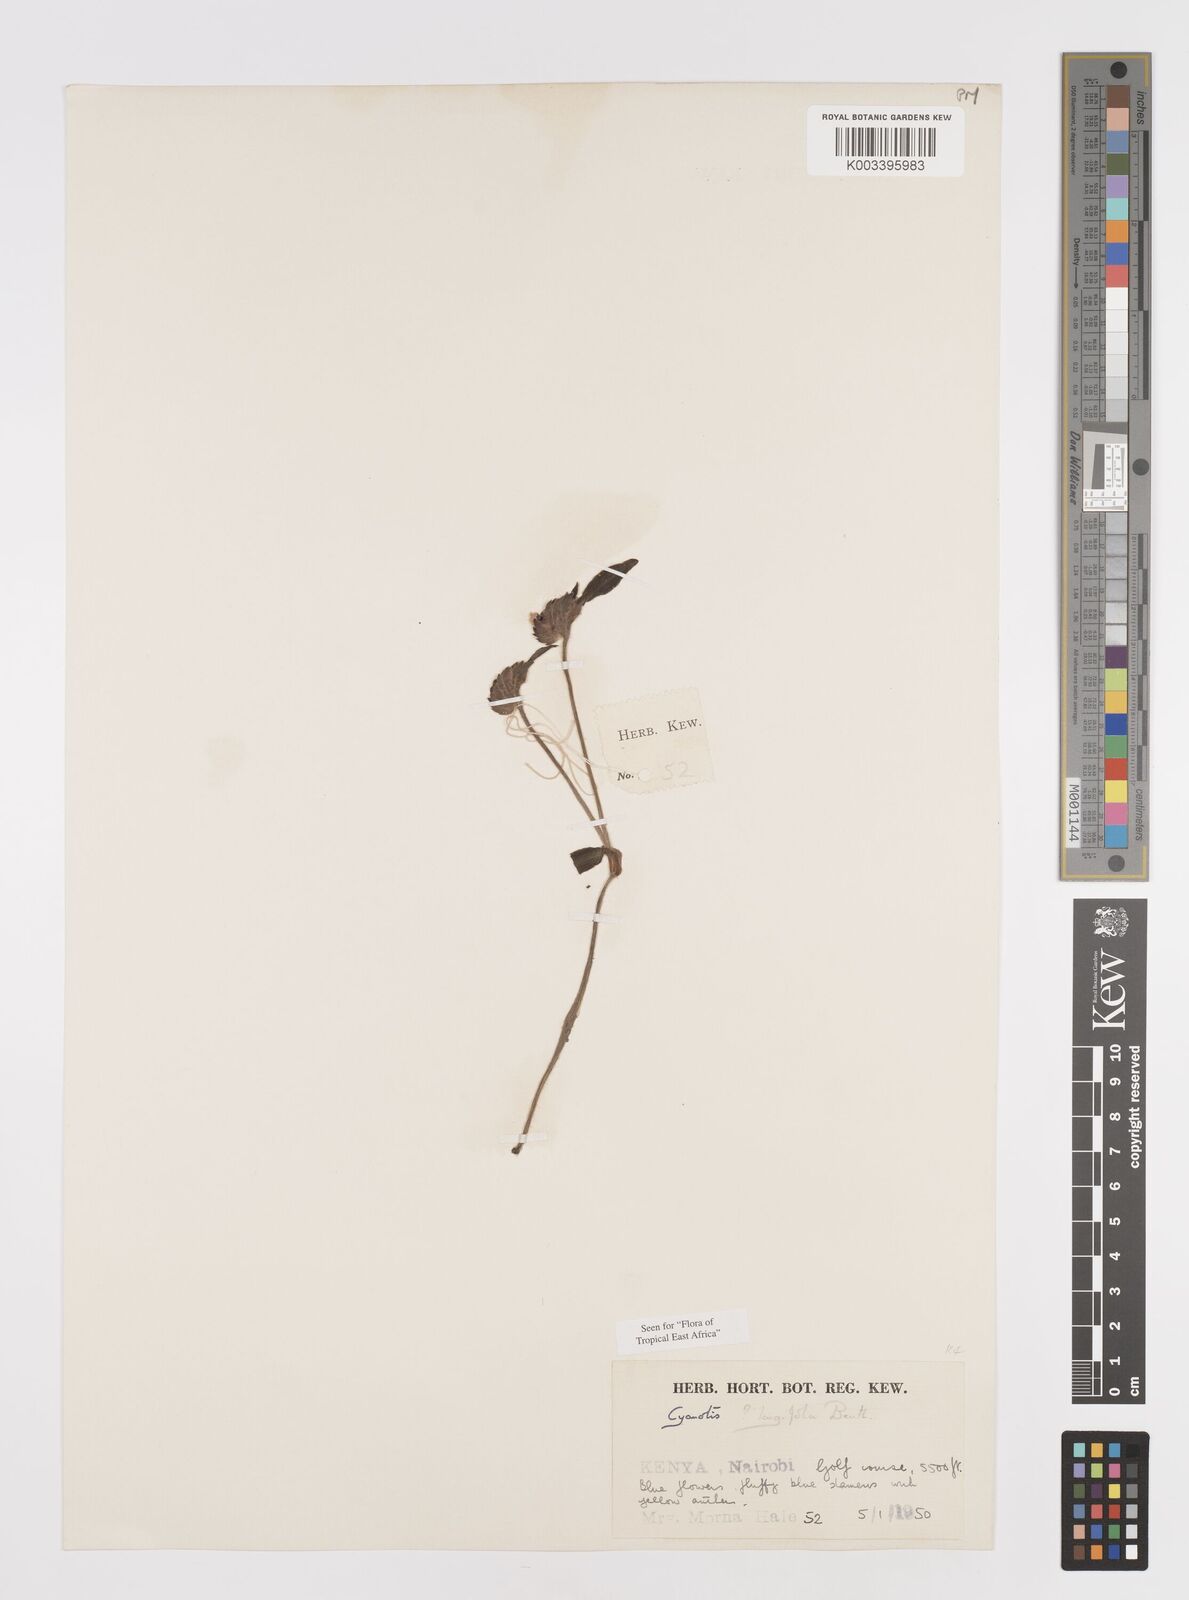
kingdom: Plantae
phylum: Tracheophyta
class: Liliopsida
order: Commelinales
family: Commelinaceae
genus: Cyanotis
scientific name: Cyanotis longifolia
